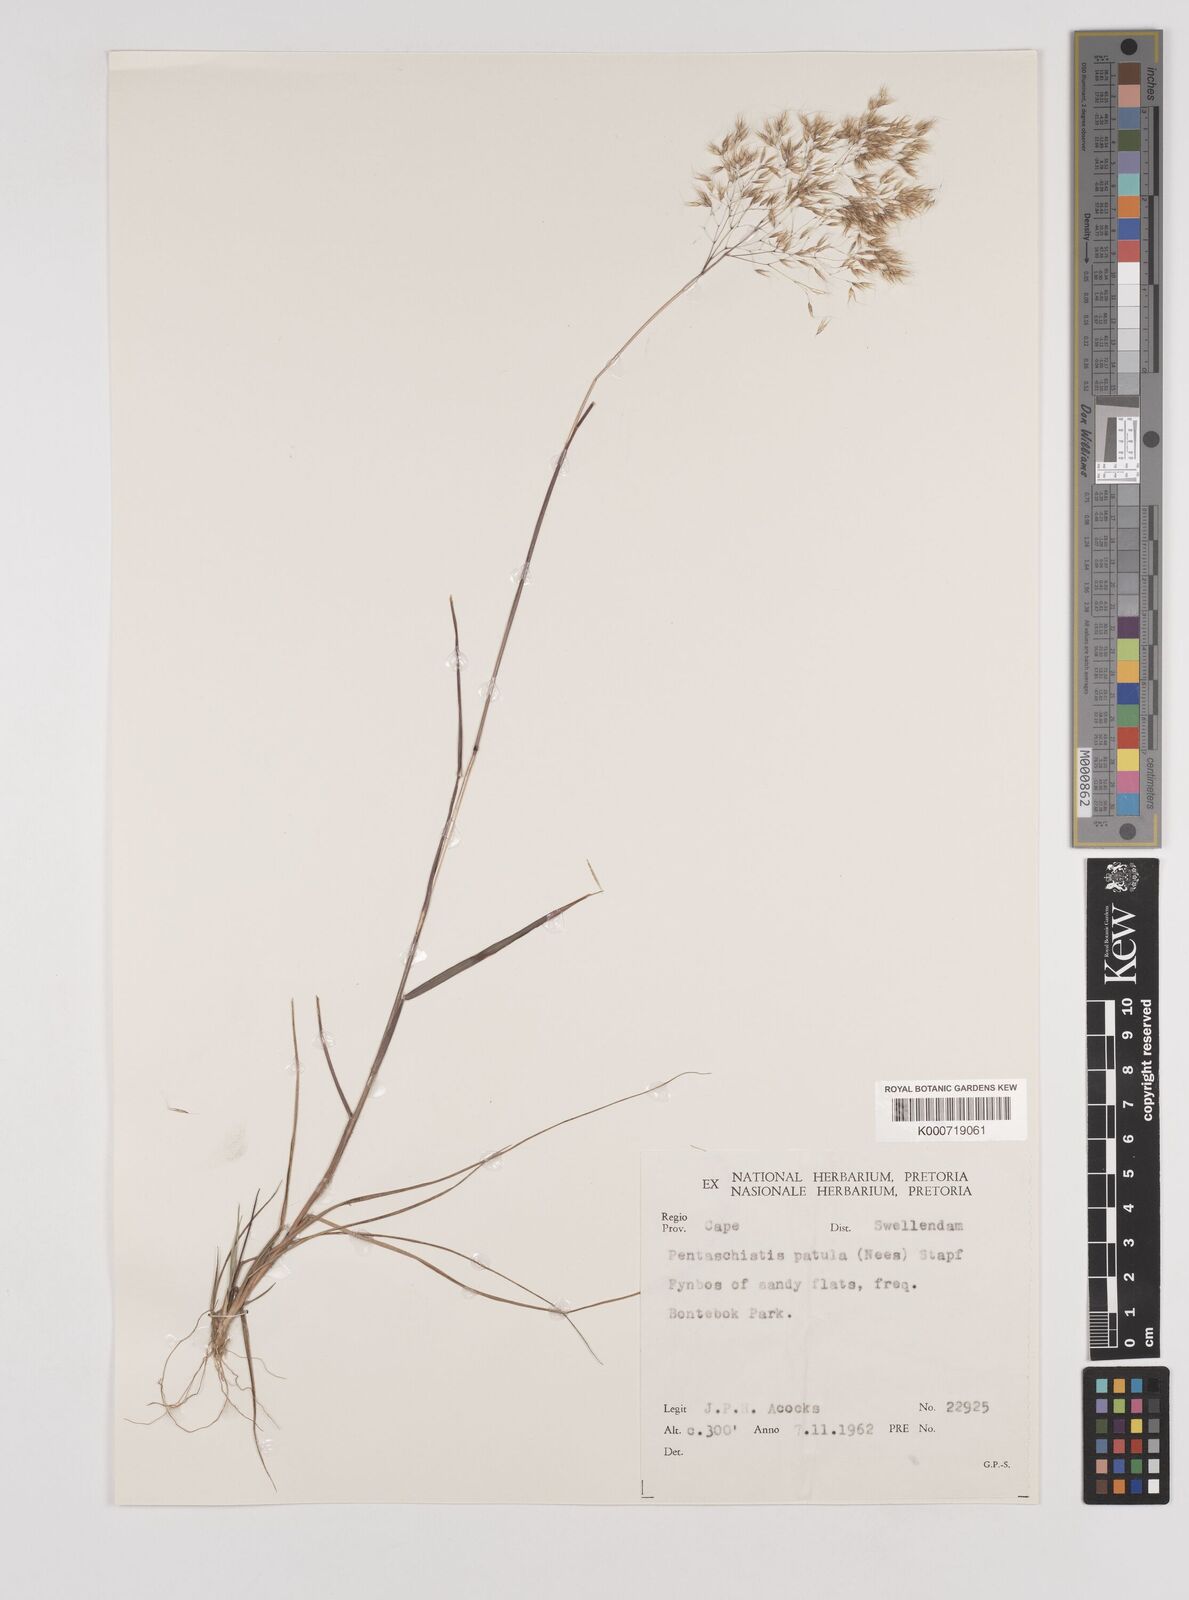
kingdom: Plantae
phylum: Tracheophyta
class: Liliopsida
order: Poales
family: Poaceae
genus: Pentameris
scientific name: Pentameris patula
